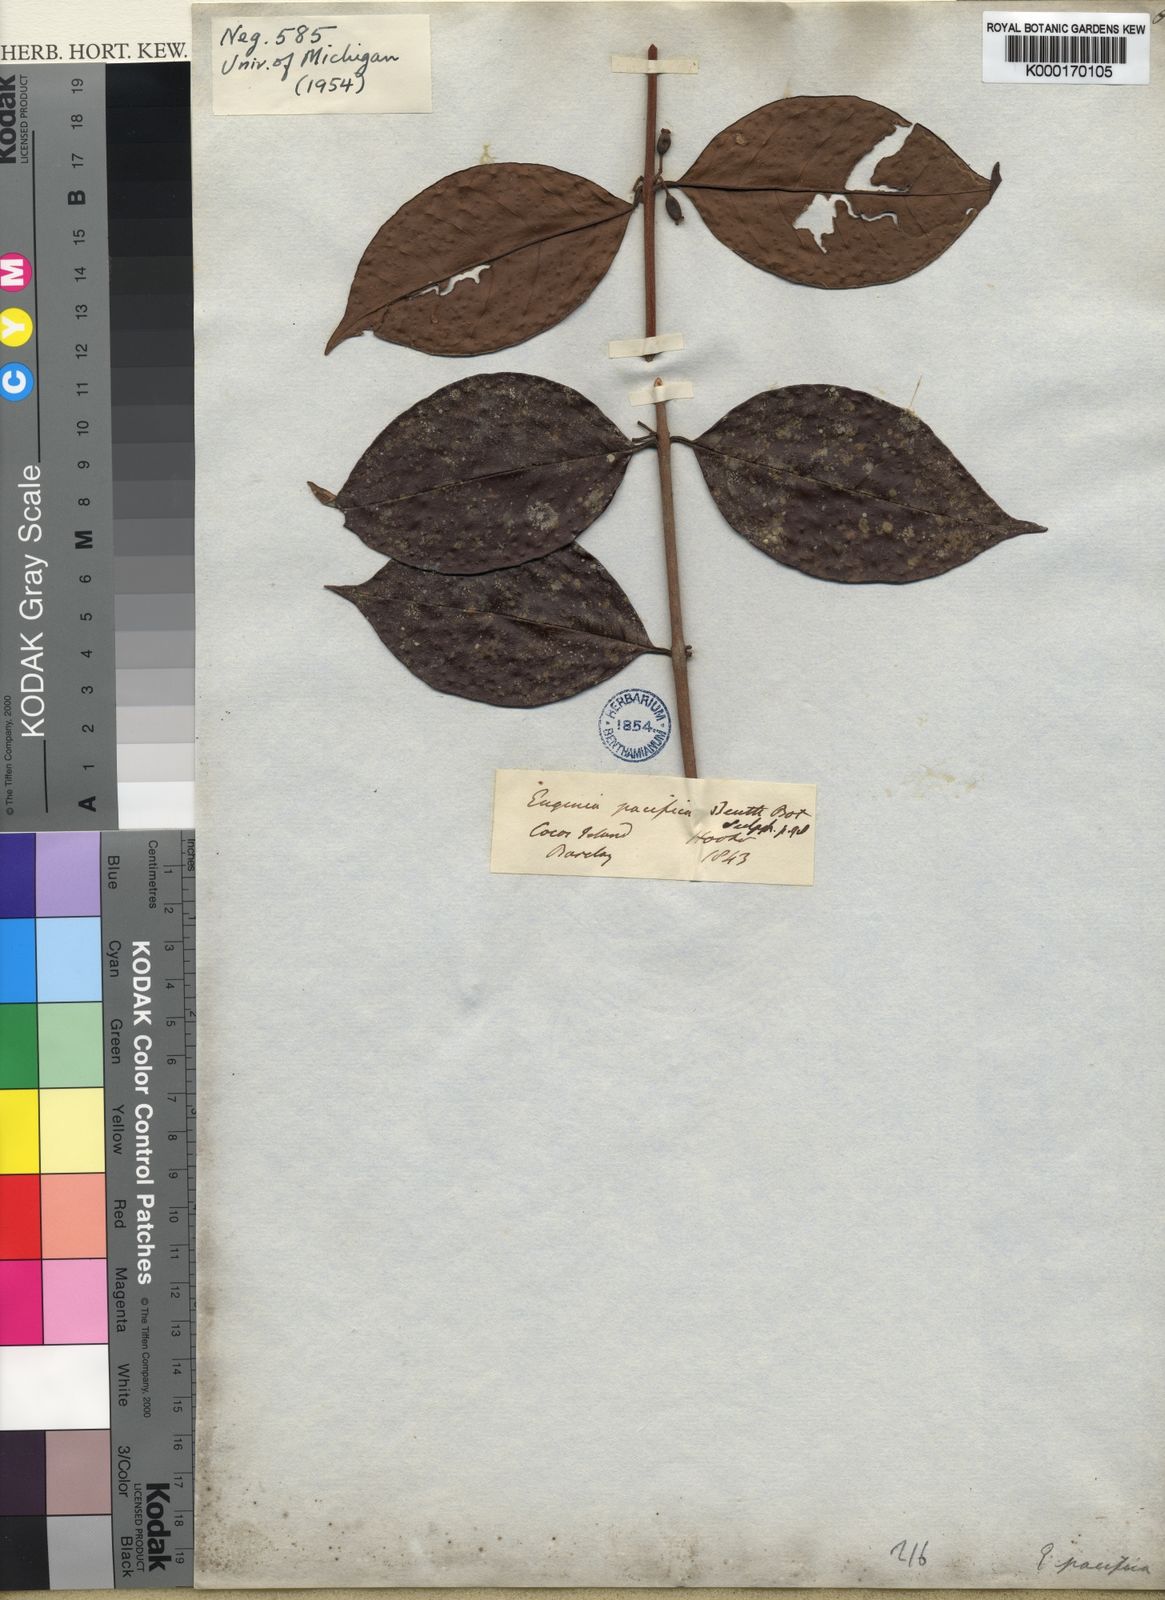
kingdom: Plantae
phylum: Tracheophyta
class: Magnoliopsida
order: Myrtales
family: Myrtaceae
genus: Eugenia
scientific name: Eugenia pacifica
